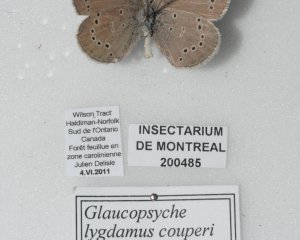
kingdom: Animalia
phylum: Arthropoda
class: Insecta
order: Lepidoptera
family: Lycaenidae
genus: Glaucopsyche
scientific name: Glaucopsyche lygdamus
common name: Silvery Blue
